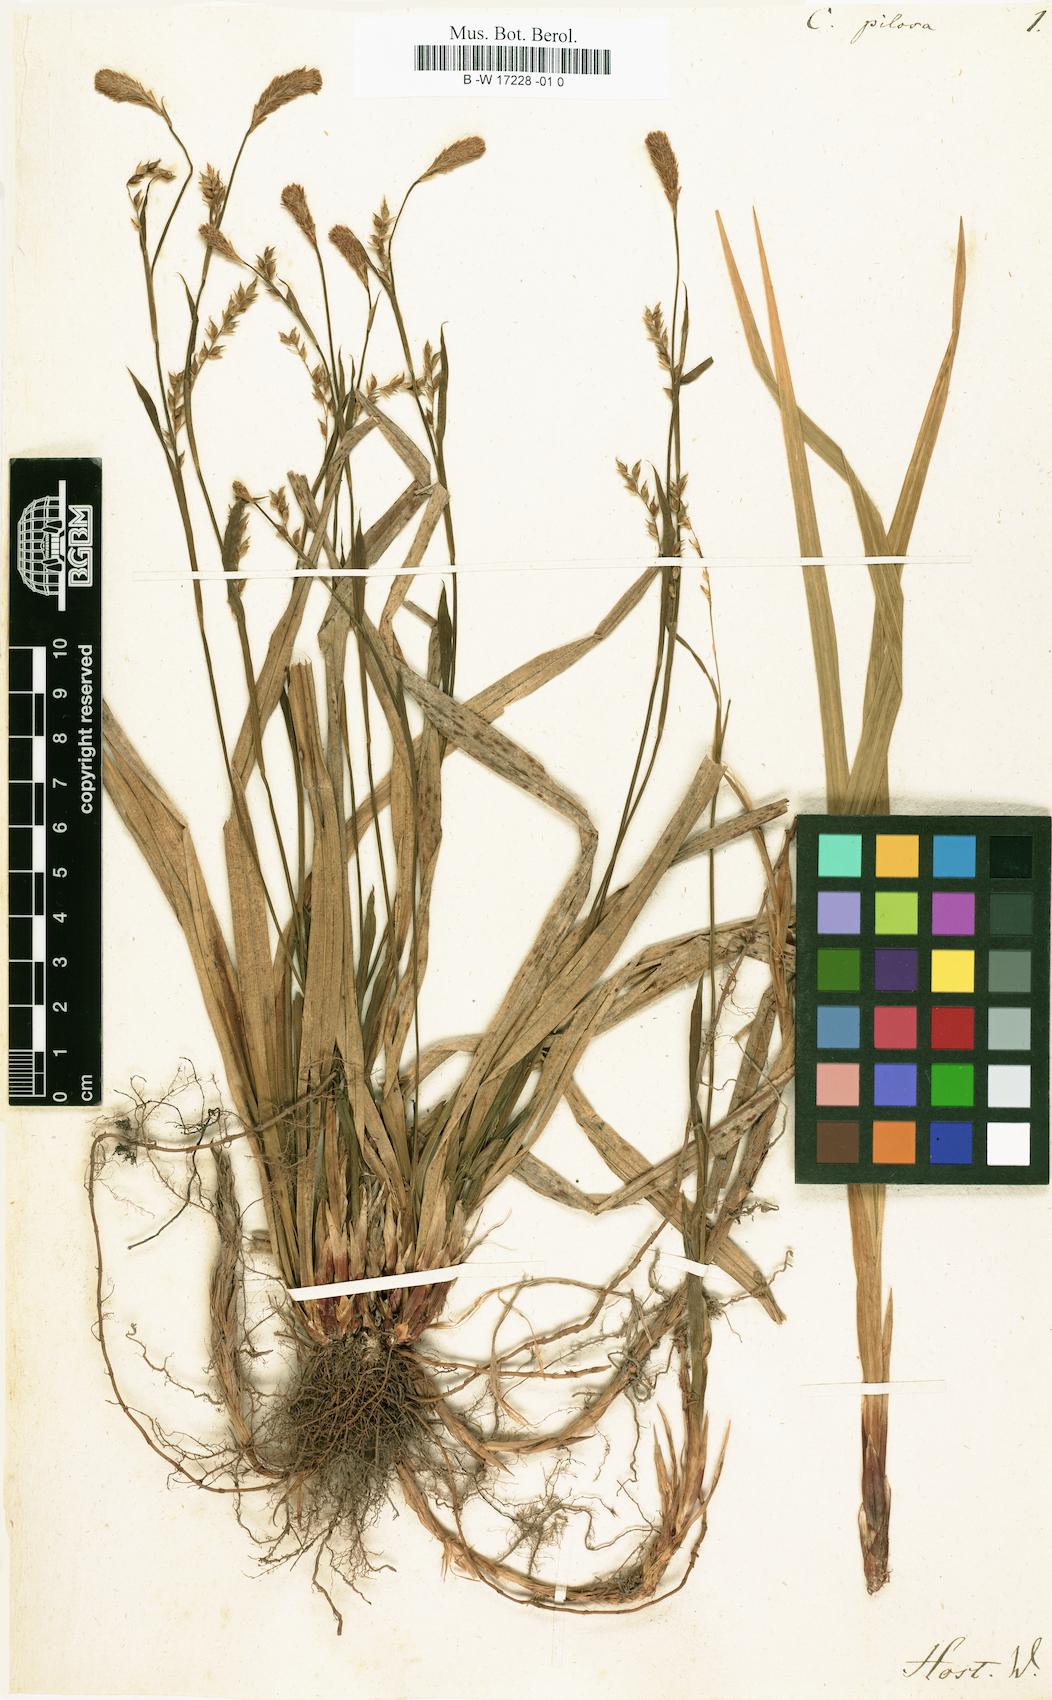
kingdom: Plantae
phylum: Tracheophyta
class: Liliopsida
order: Poales
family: Cyperaceae
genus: Carex
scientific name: Carex pilosa
